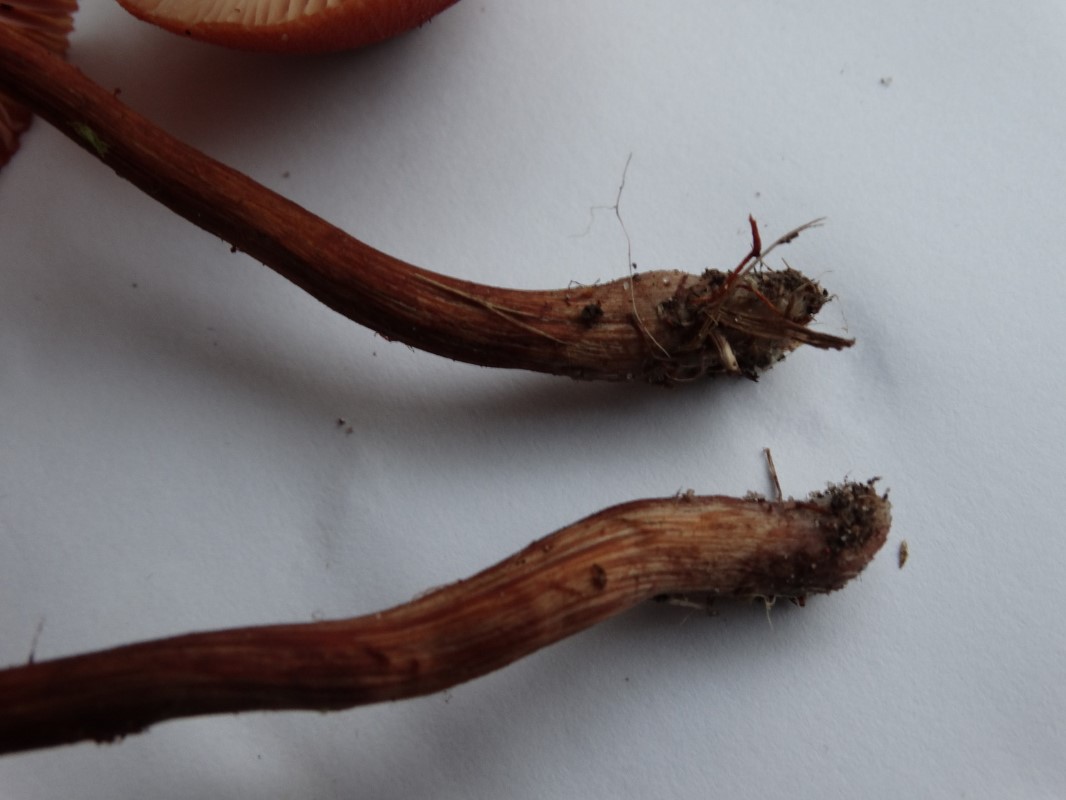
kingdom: Fungi
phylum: Basidiomycota
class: Agaricomycetes
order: Agaricales
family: Hydnangiaceae
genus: Laccaria
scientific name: Laccaria proxima
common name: stor ametysthat
